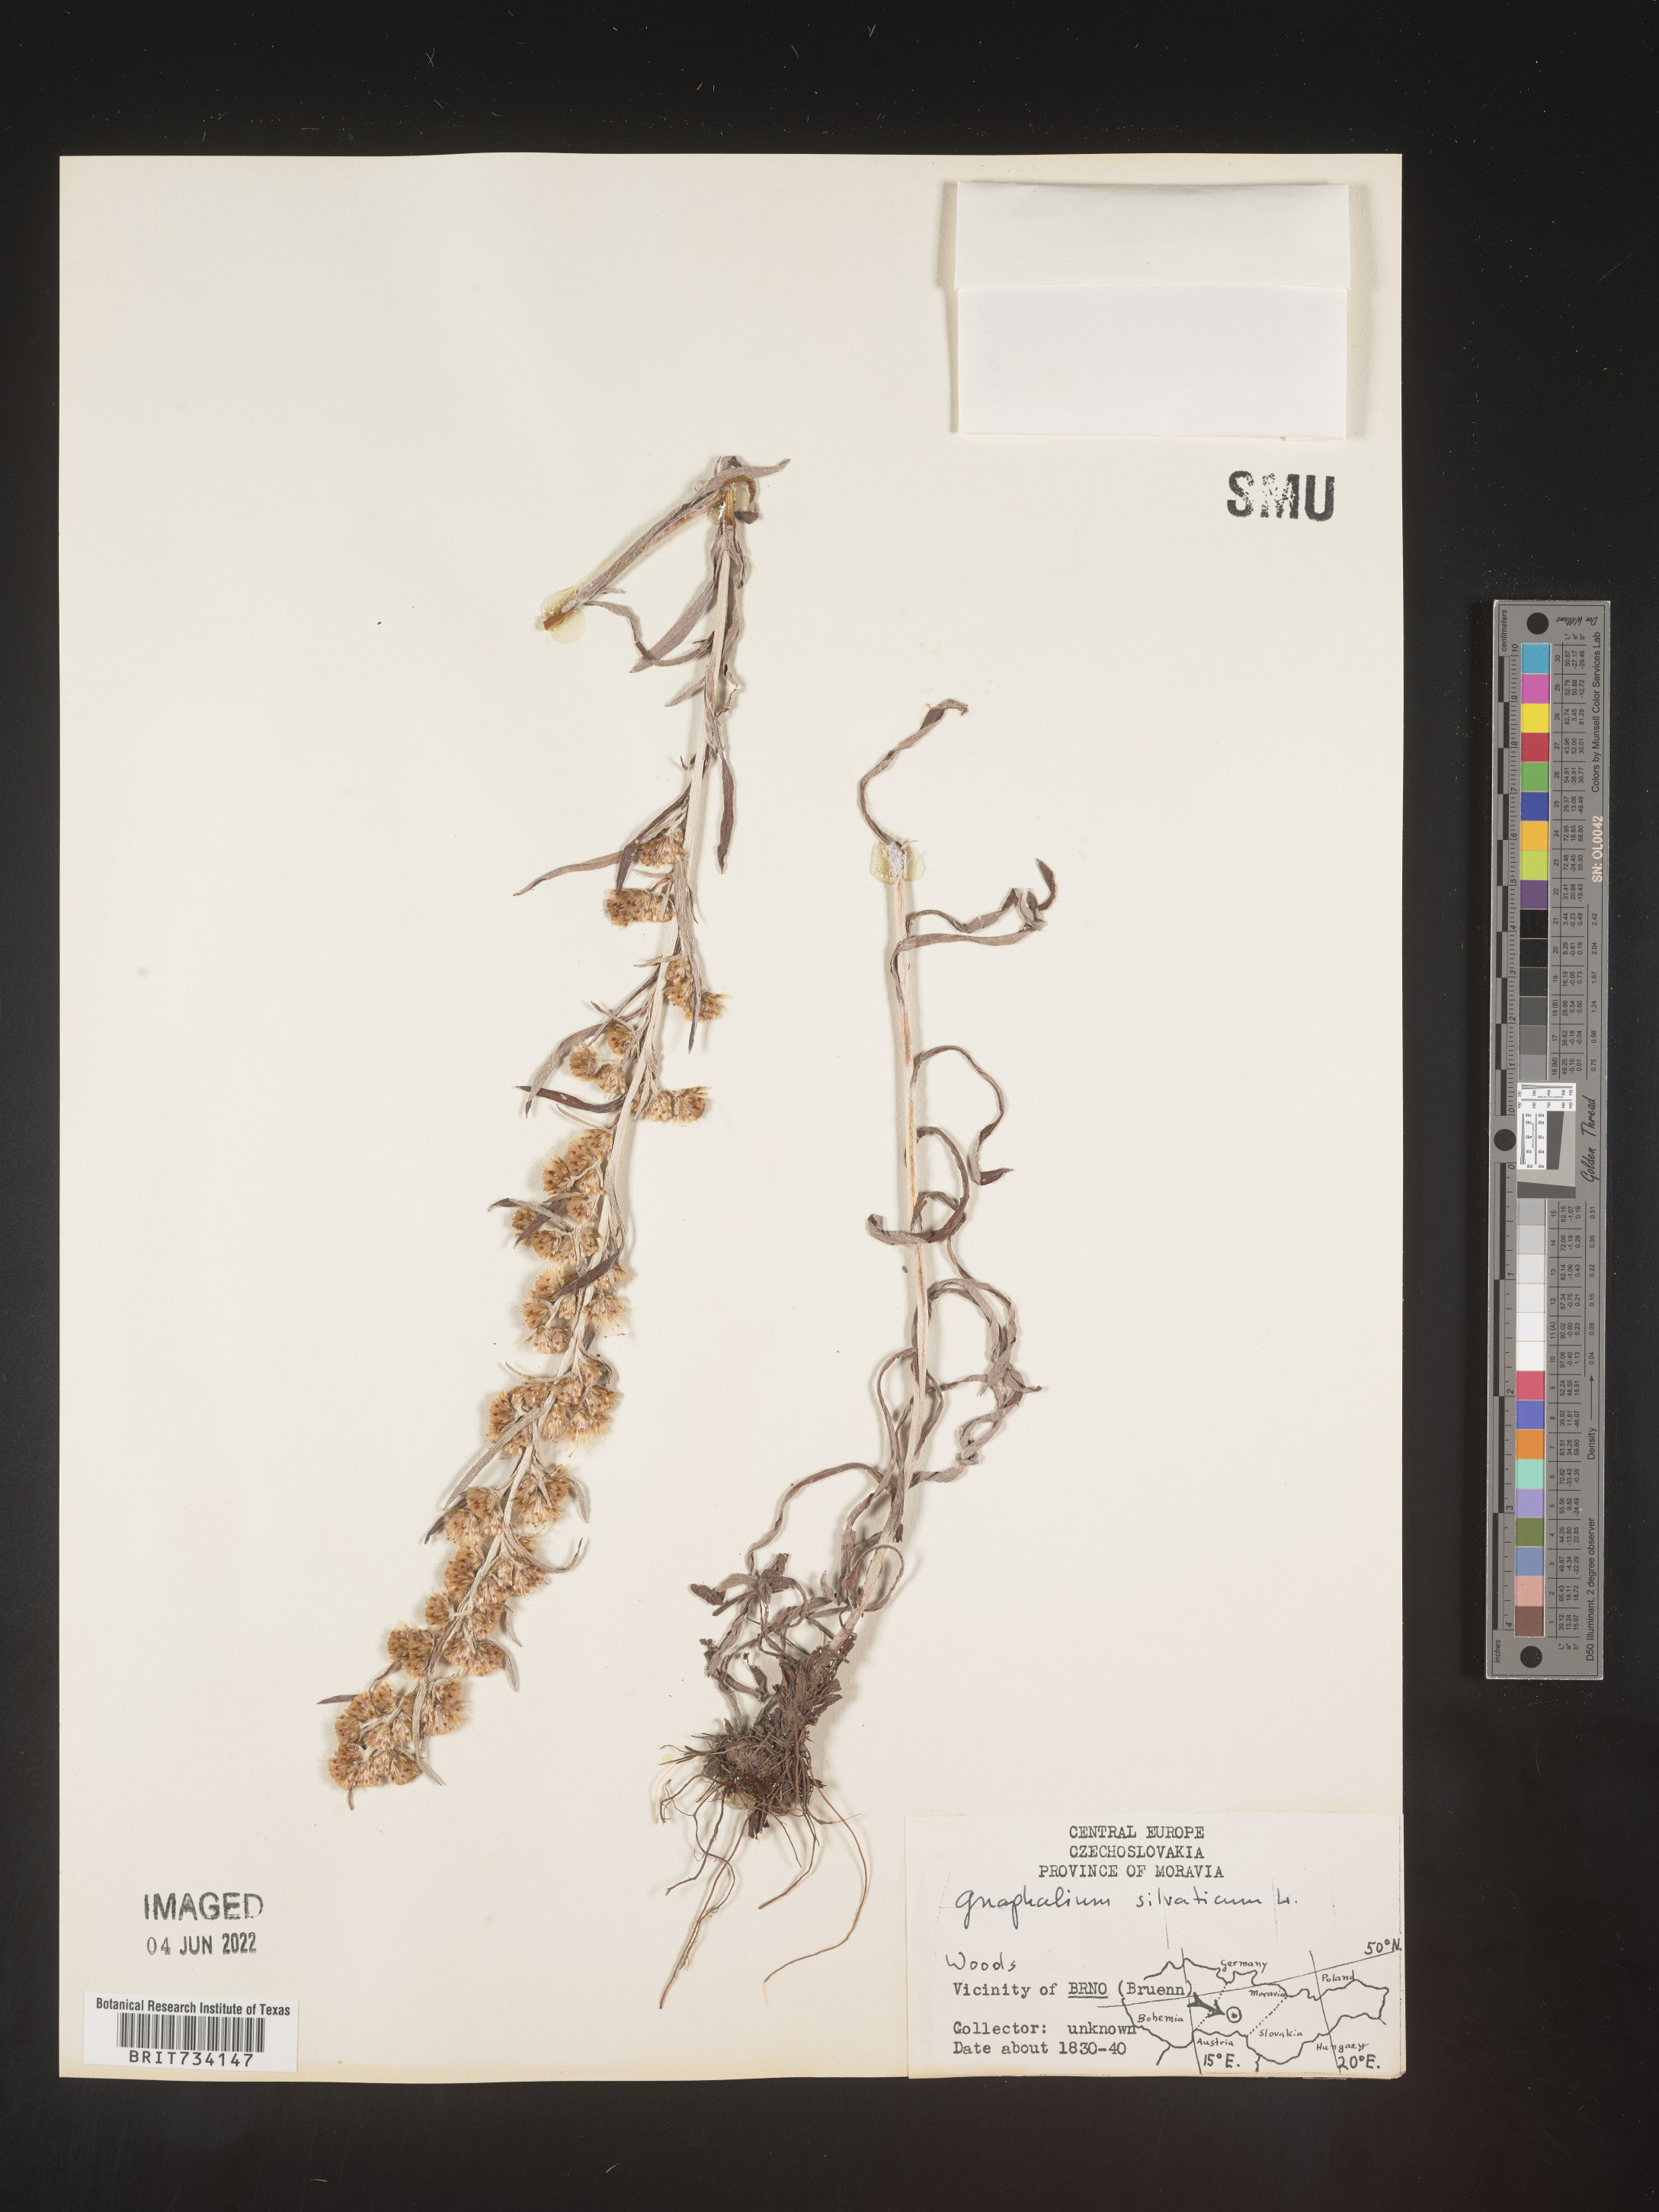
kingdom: Plantae
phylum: Tracheophyta
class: Magnoliopsida
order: Asterales
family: Asteraceae
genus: Omalotheca
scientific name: Omalotheca sylvatica
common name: Heath cudweed
